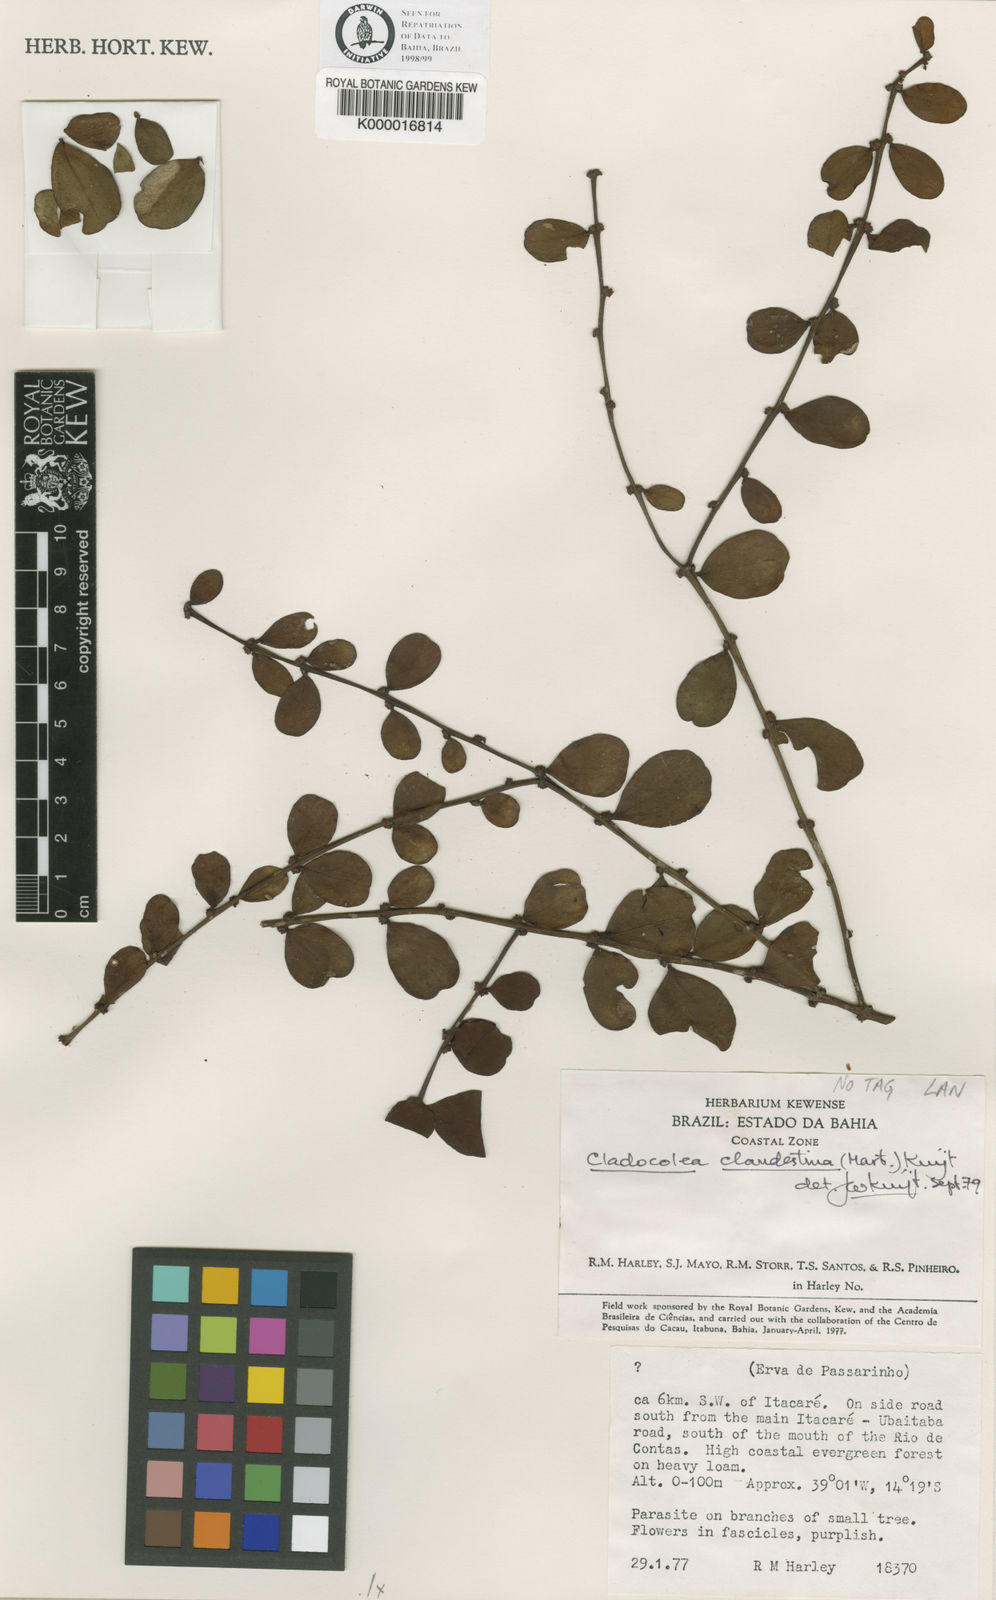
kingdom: Plantae
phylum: Tracheophyta
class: Magnoliopsida
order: Santalales
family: Loranthaceae
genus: Phthirusa
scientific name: Phthirusa clandestina
